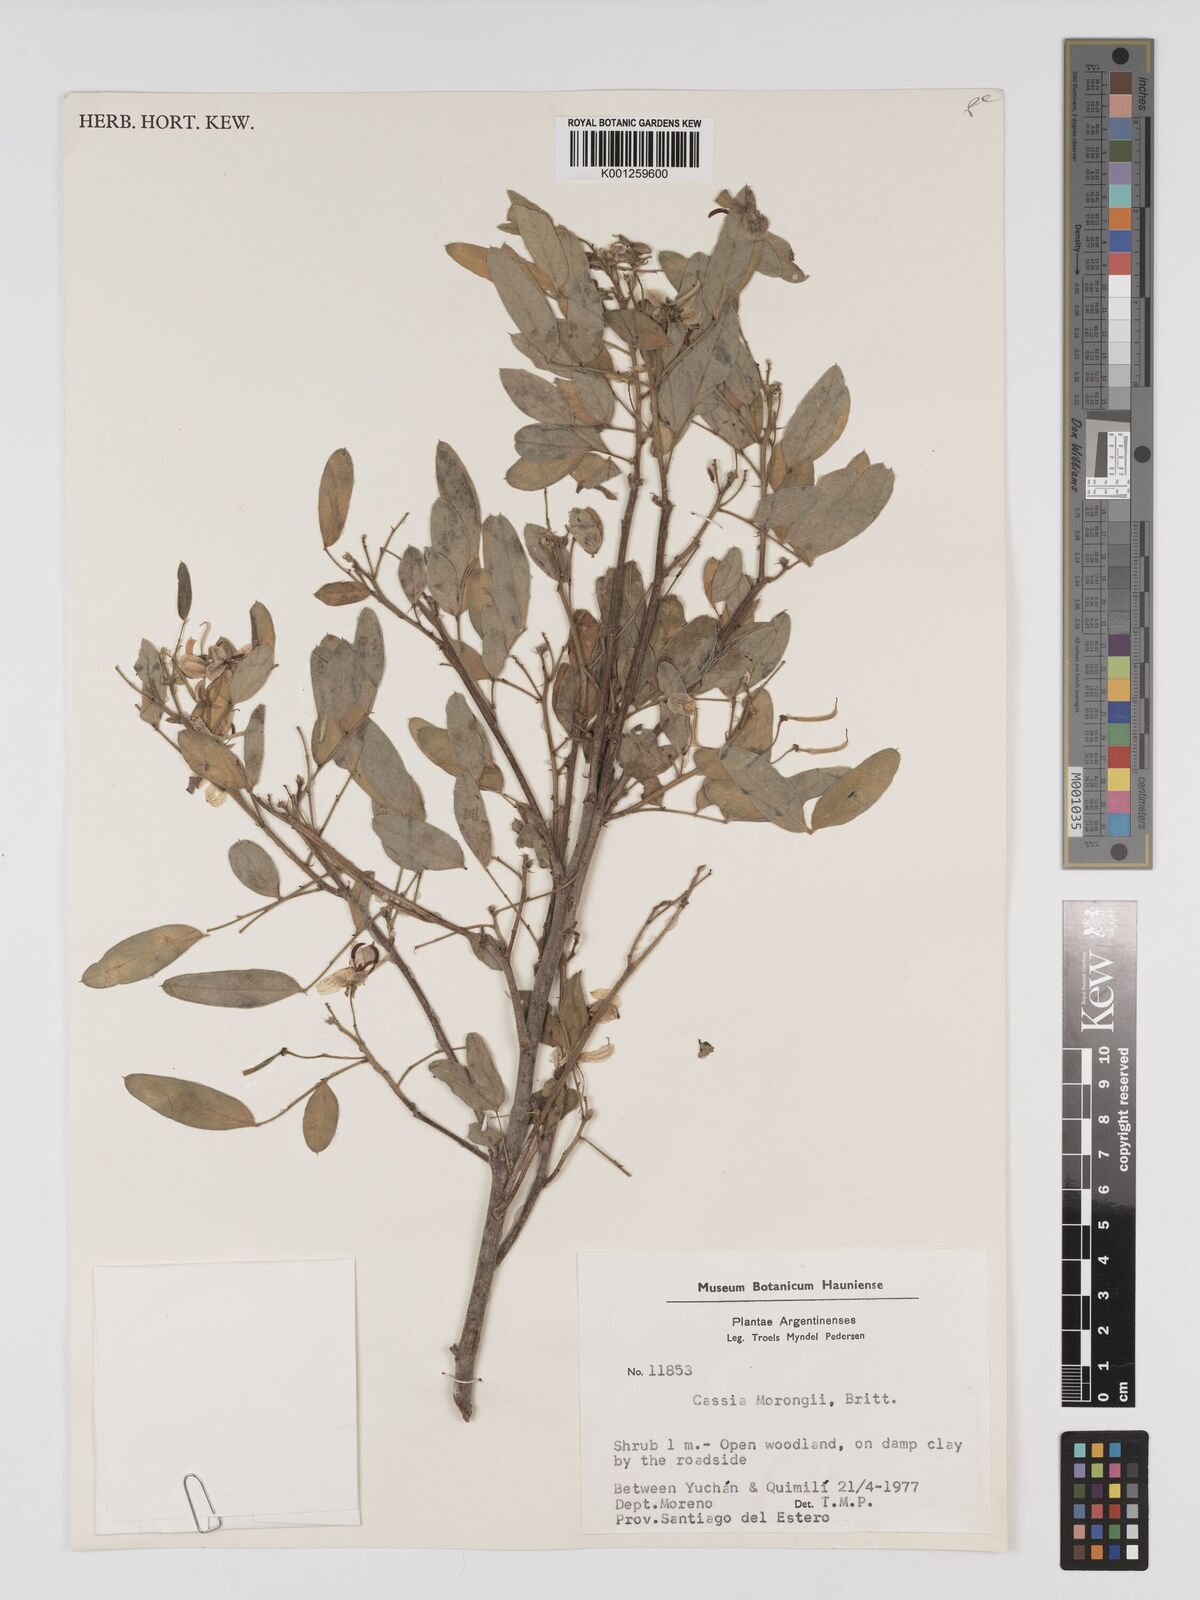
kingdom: Plantae
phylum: Tracheophyta
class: Magnoliopsida
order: Fabales
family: Fabaceae
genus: Senna
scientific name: Senna morongii
